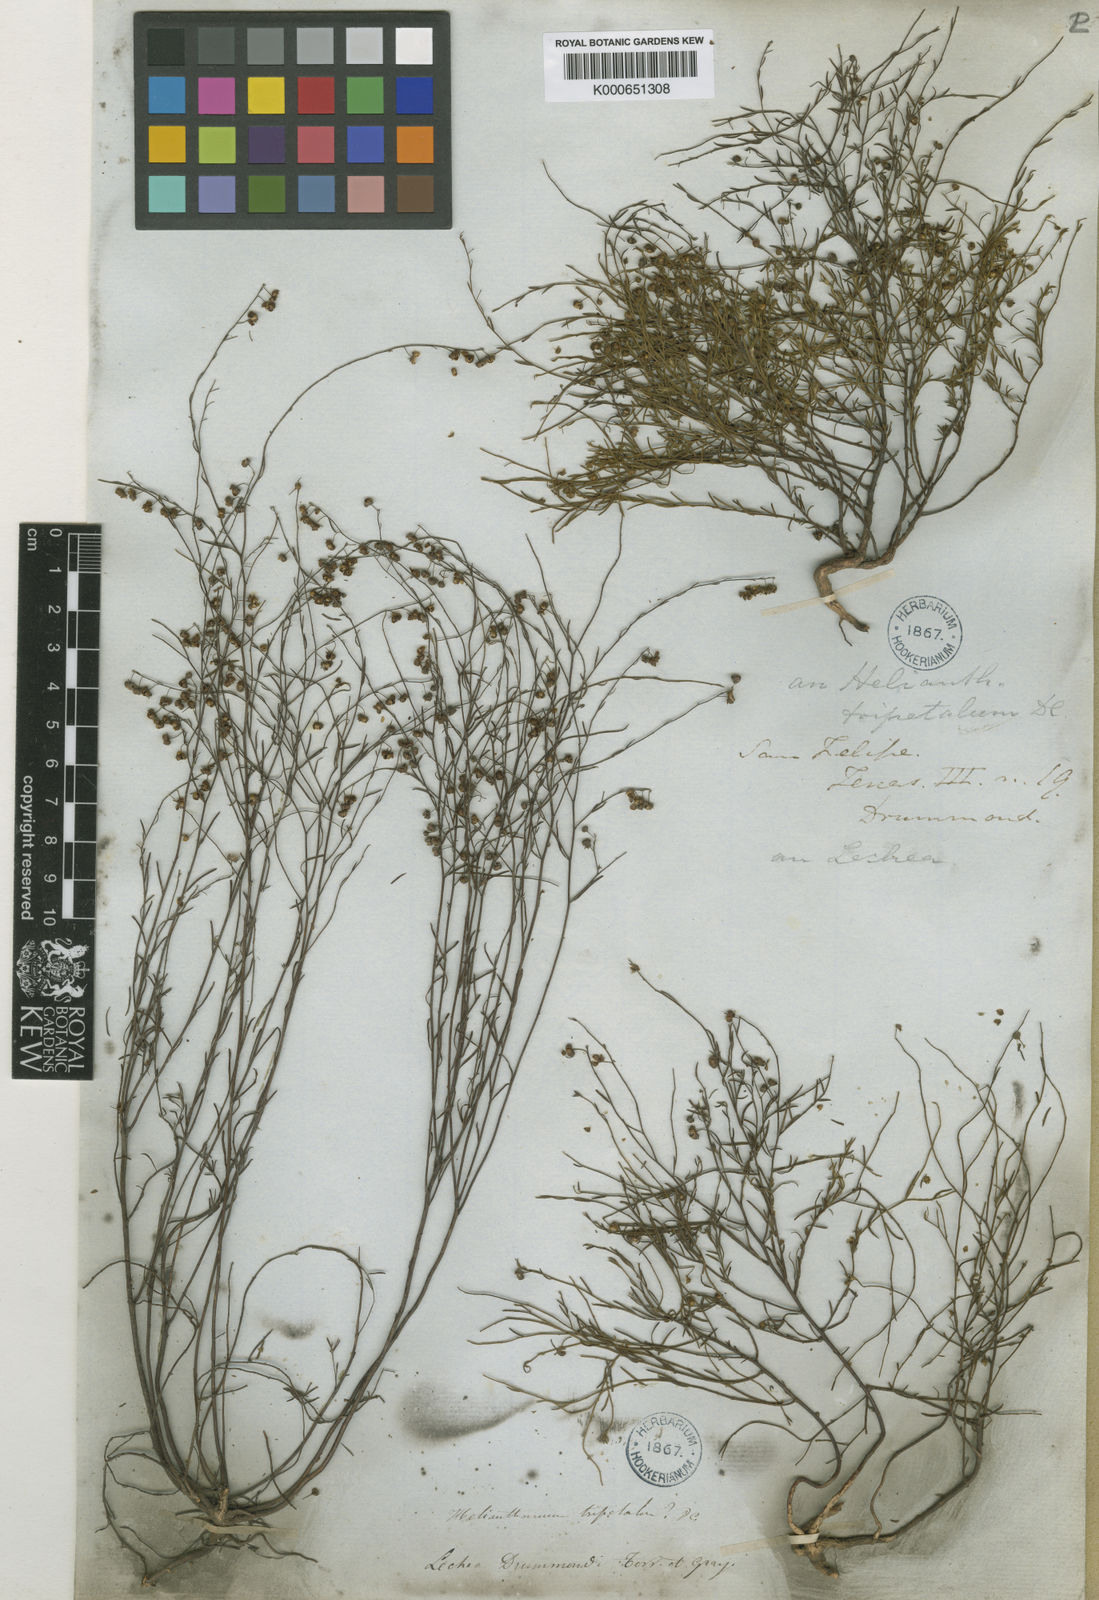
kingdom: Plantae
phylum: Tracheophyta
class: Magnoliopsida
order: Malvales
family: Cistaceae
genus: Lechea
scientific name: Lechea drummondii
